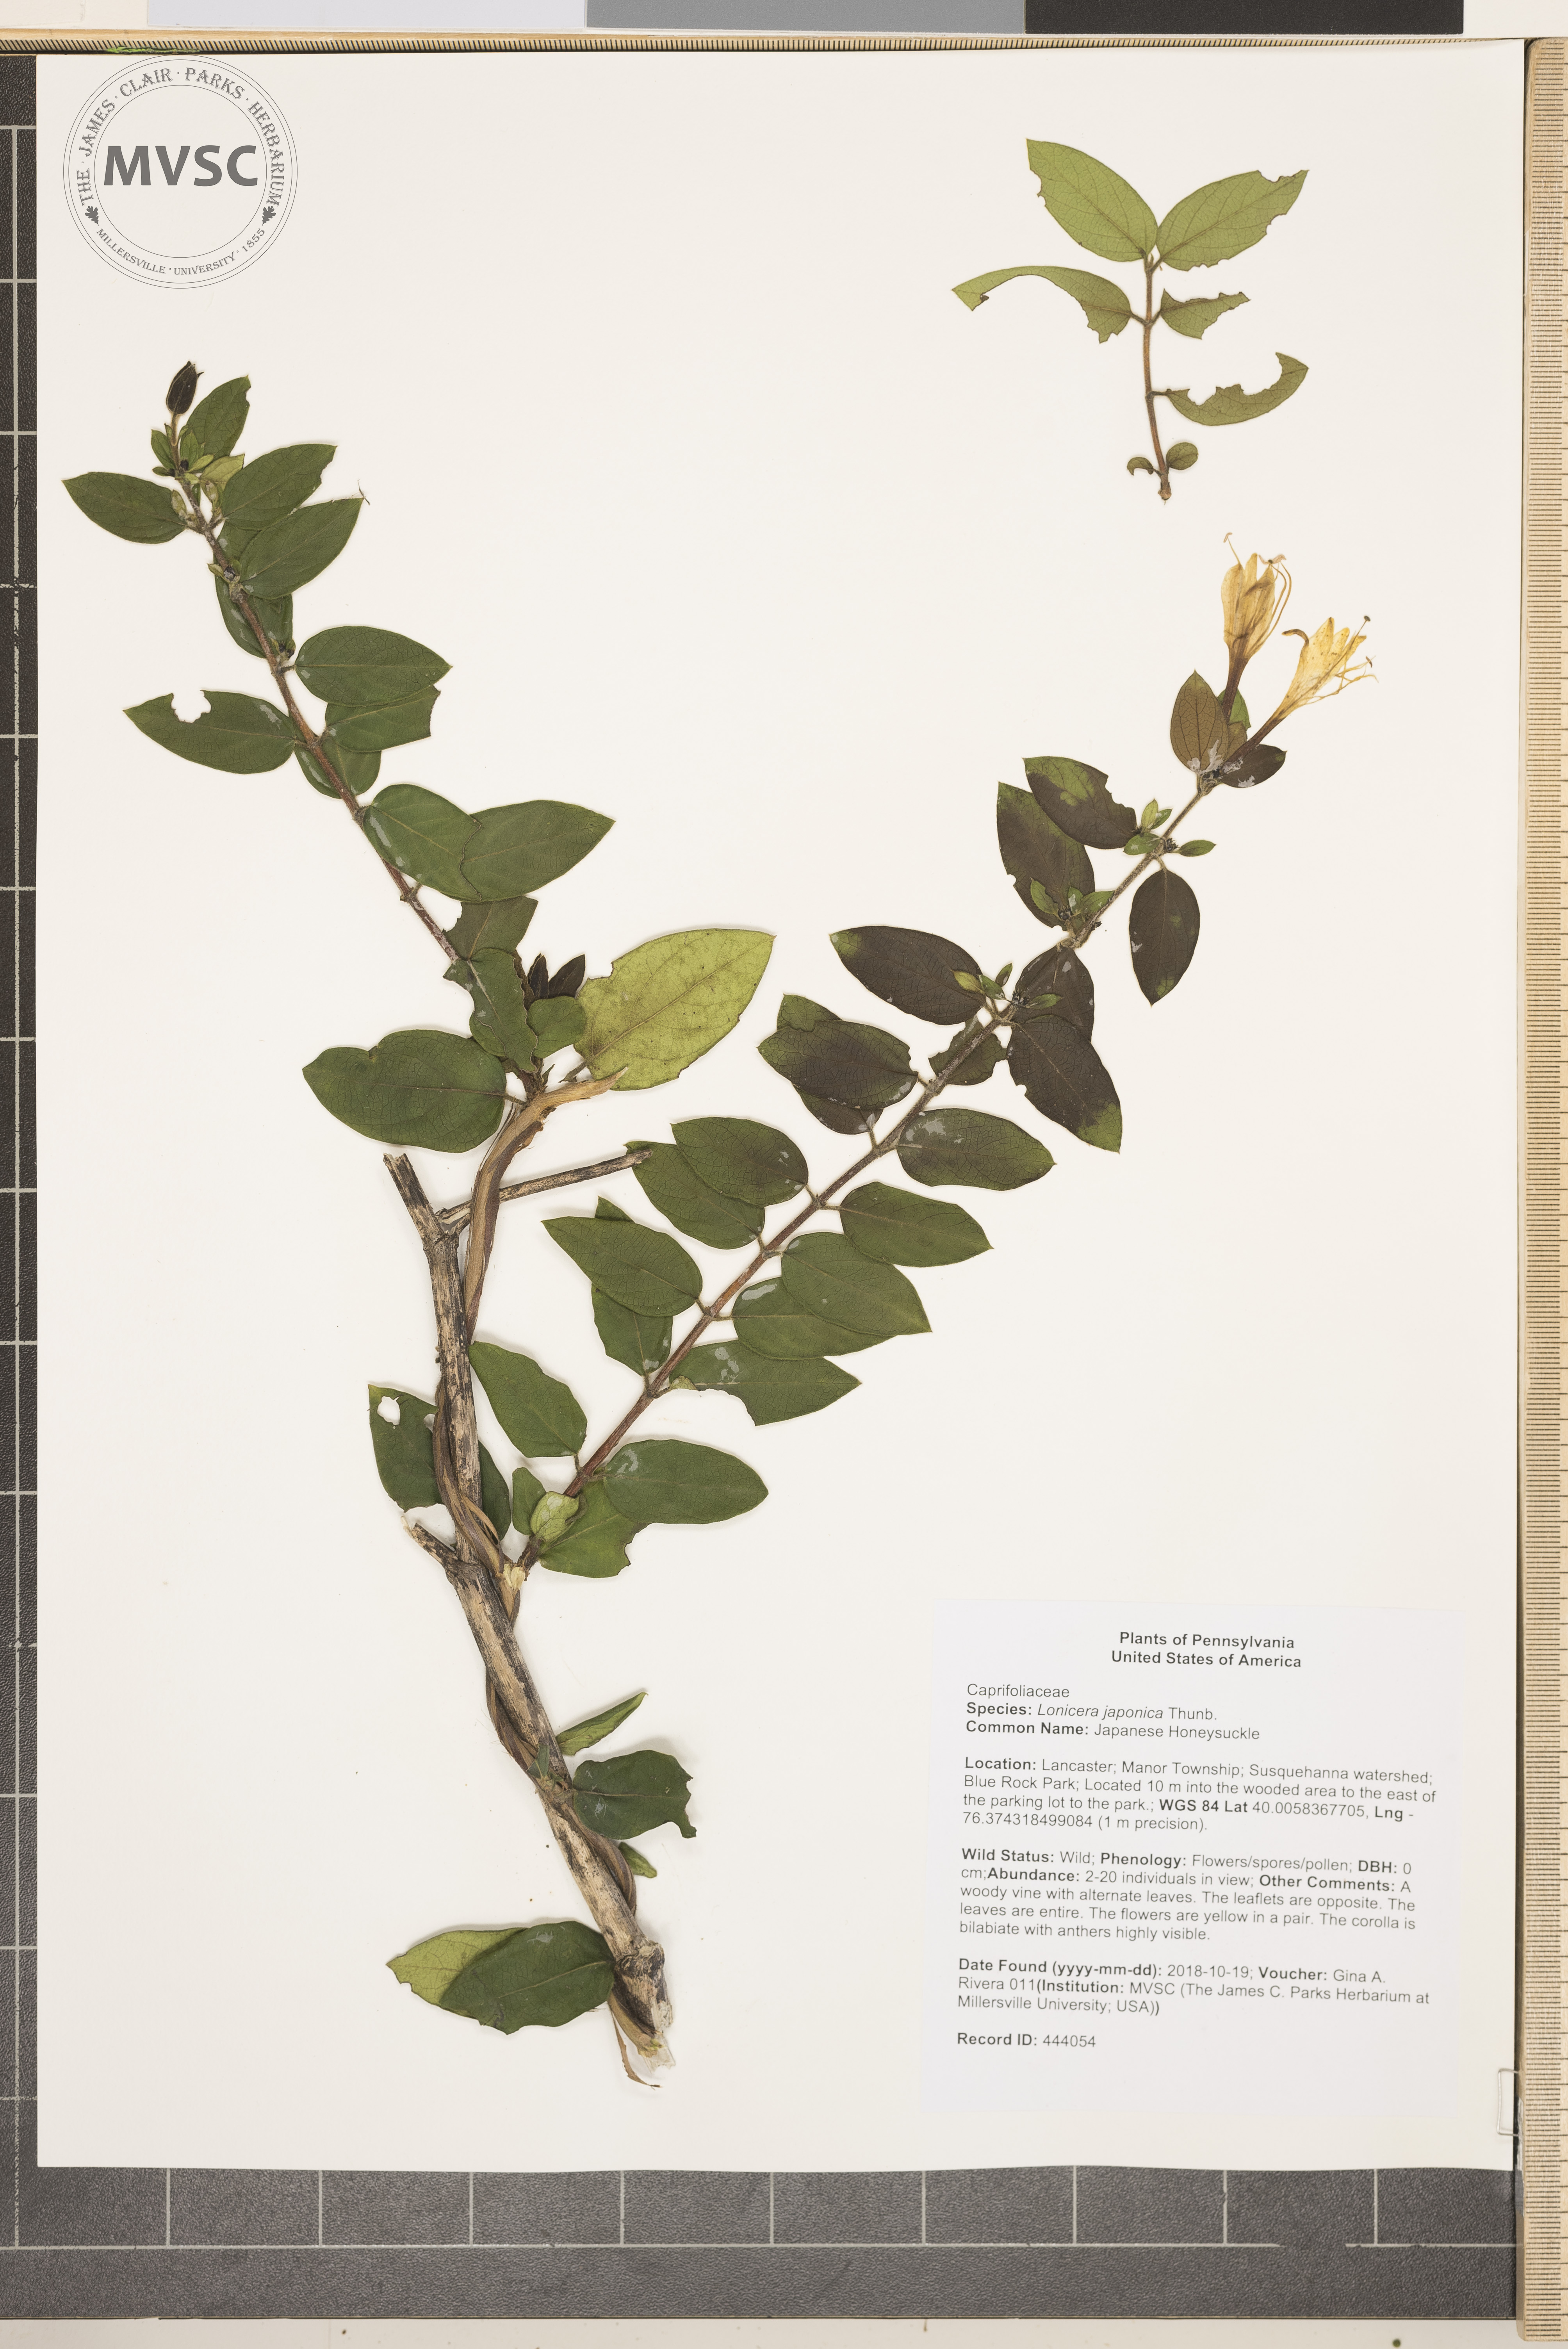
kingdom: Plantae
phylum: Tracheophyta
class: Magnoliopsida
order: Dipsacales
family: Caprifoliaceae
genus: Lonicera
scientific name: Lonicera japonica
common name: Japanese Honeysuckle
